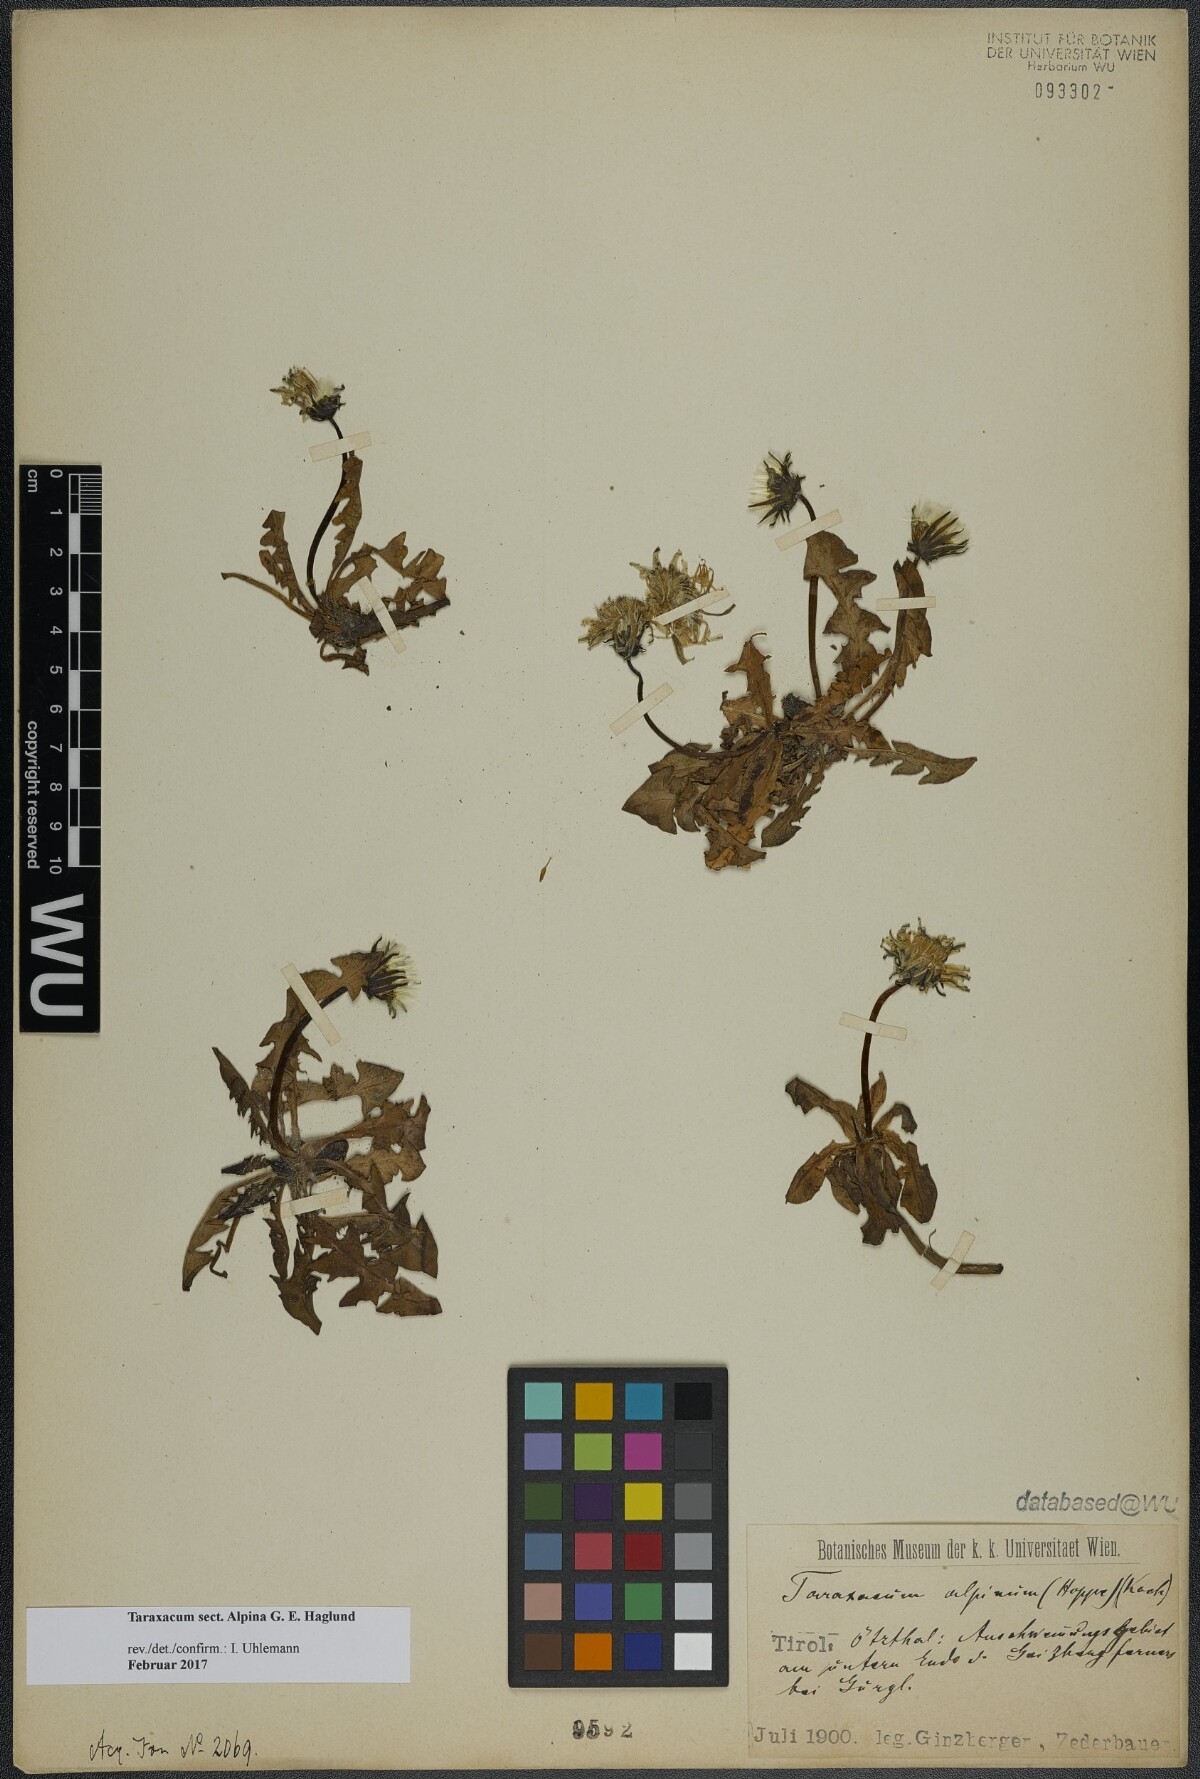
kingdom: Plantae
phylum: Tracheophyta
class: Magnoliopsida
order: Asterales
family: Asteraceae
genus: Taraxacum
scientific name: Taraxacum
